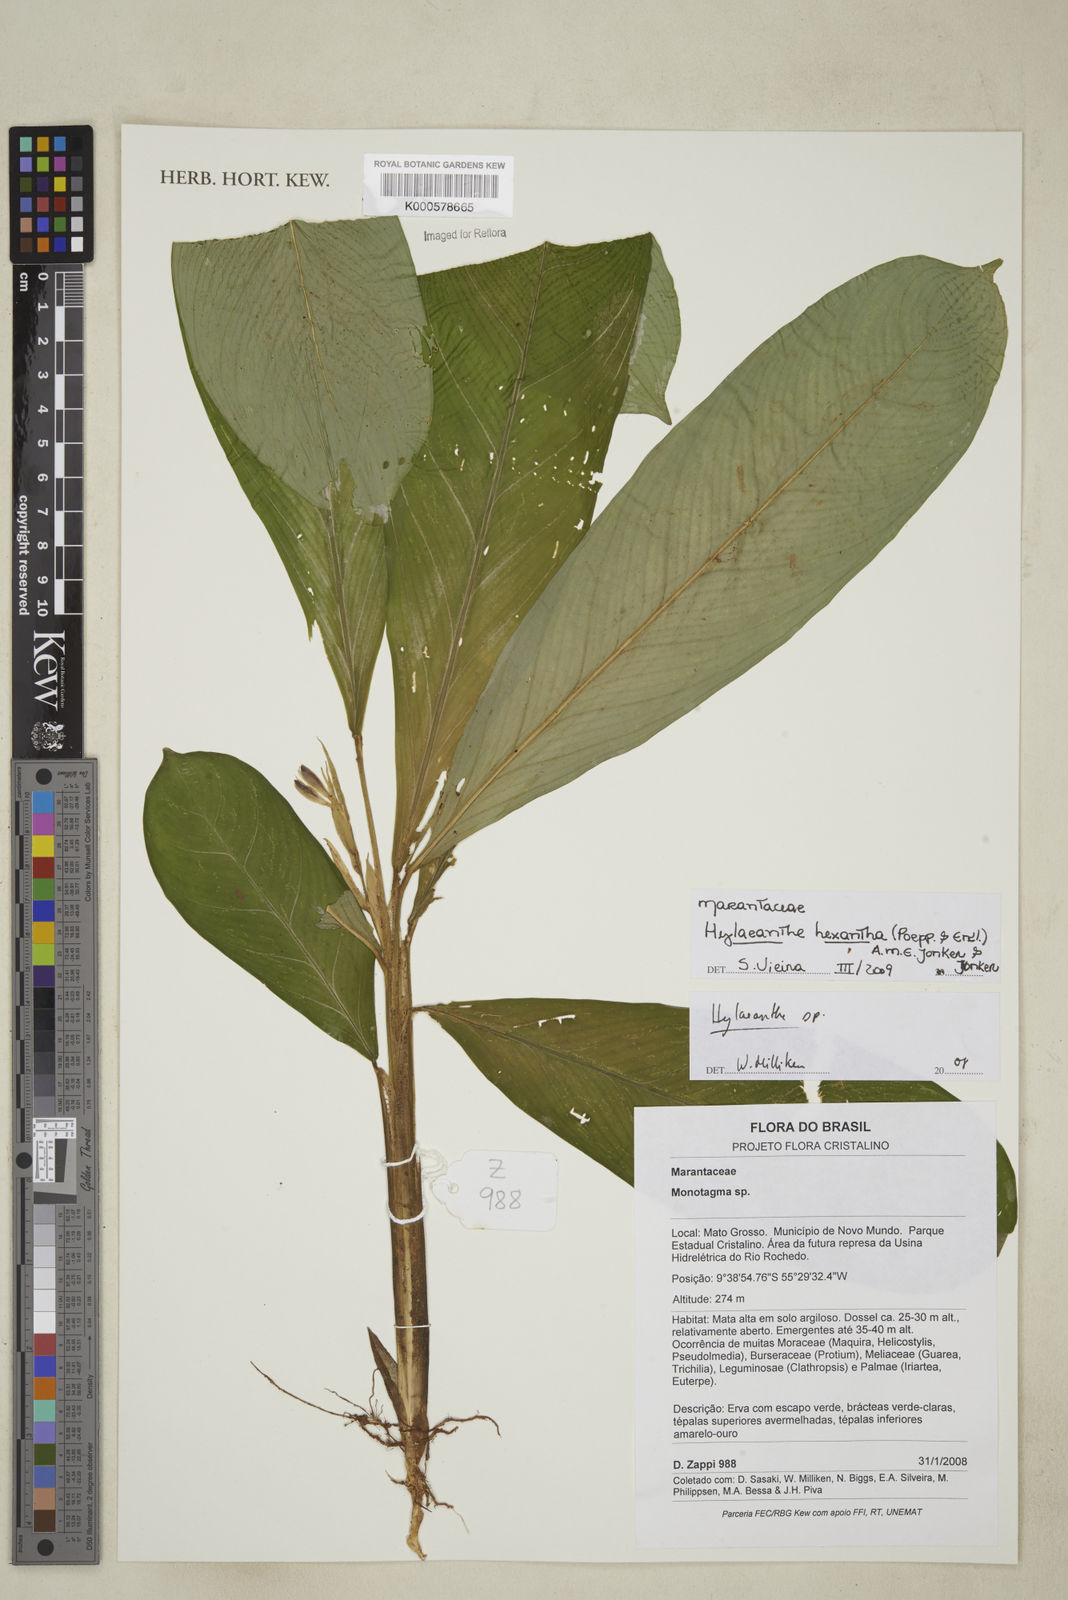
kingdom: Plantae
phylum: Tracheophyta
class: Liliopsida
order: Zingiberales
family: Marantaceae
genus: Hylaeanthe
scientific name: Hylaeanthe hexantha
